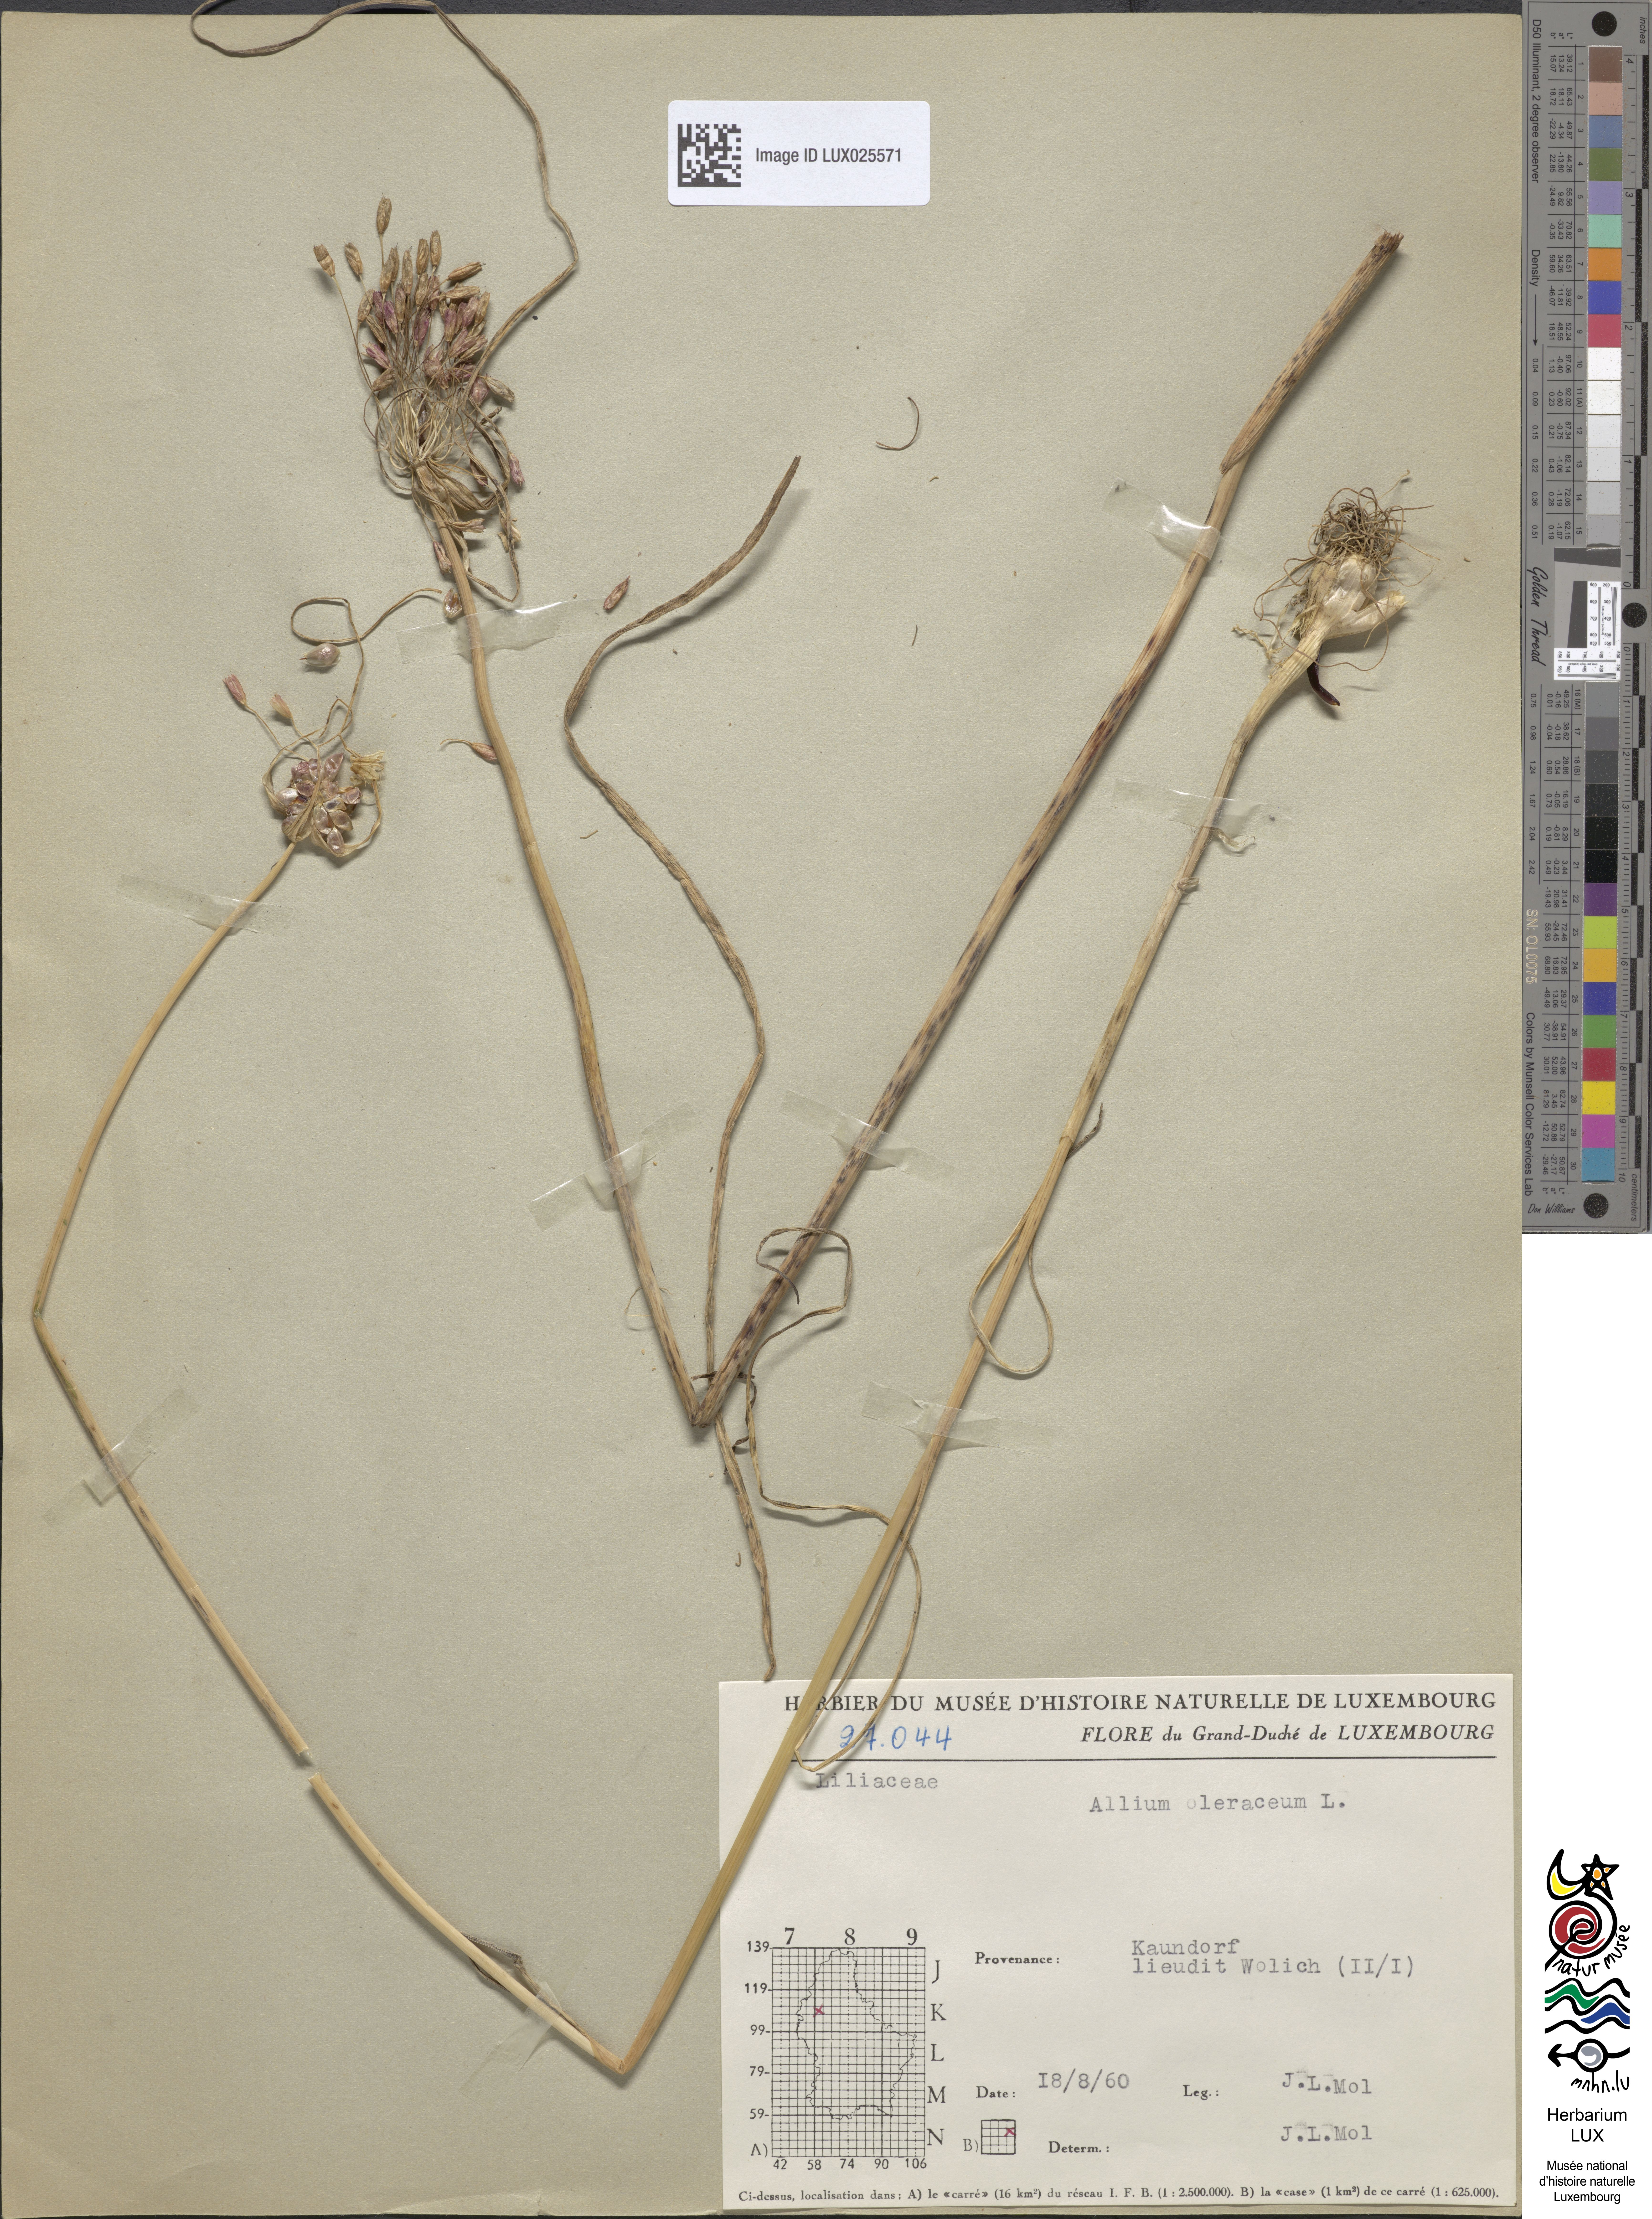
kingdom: Plantae
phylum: Tracheophyta
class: Liliopsida
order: Asparagales
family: Amaryllidaceae
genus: Allium
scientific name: Allium oleraceum
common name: Field garlic
